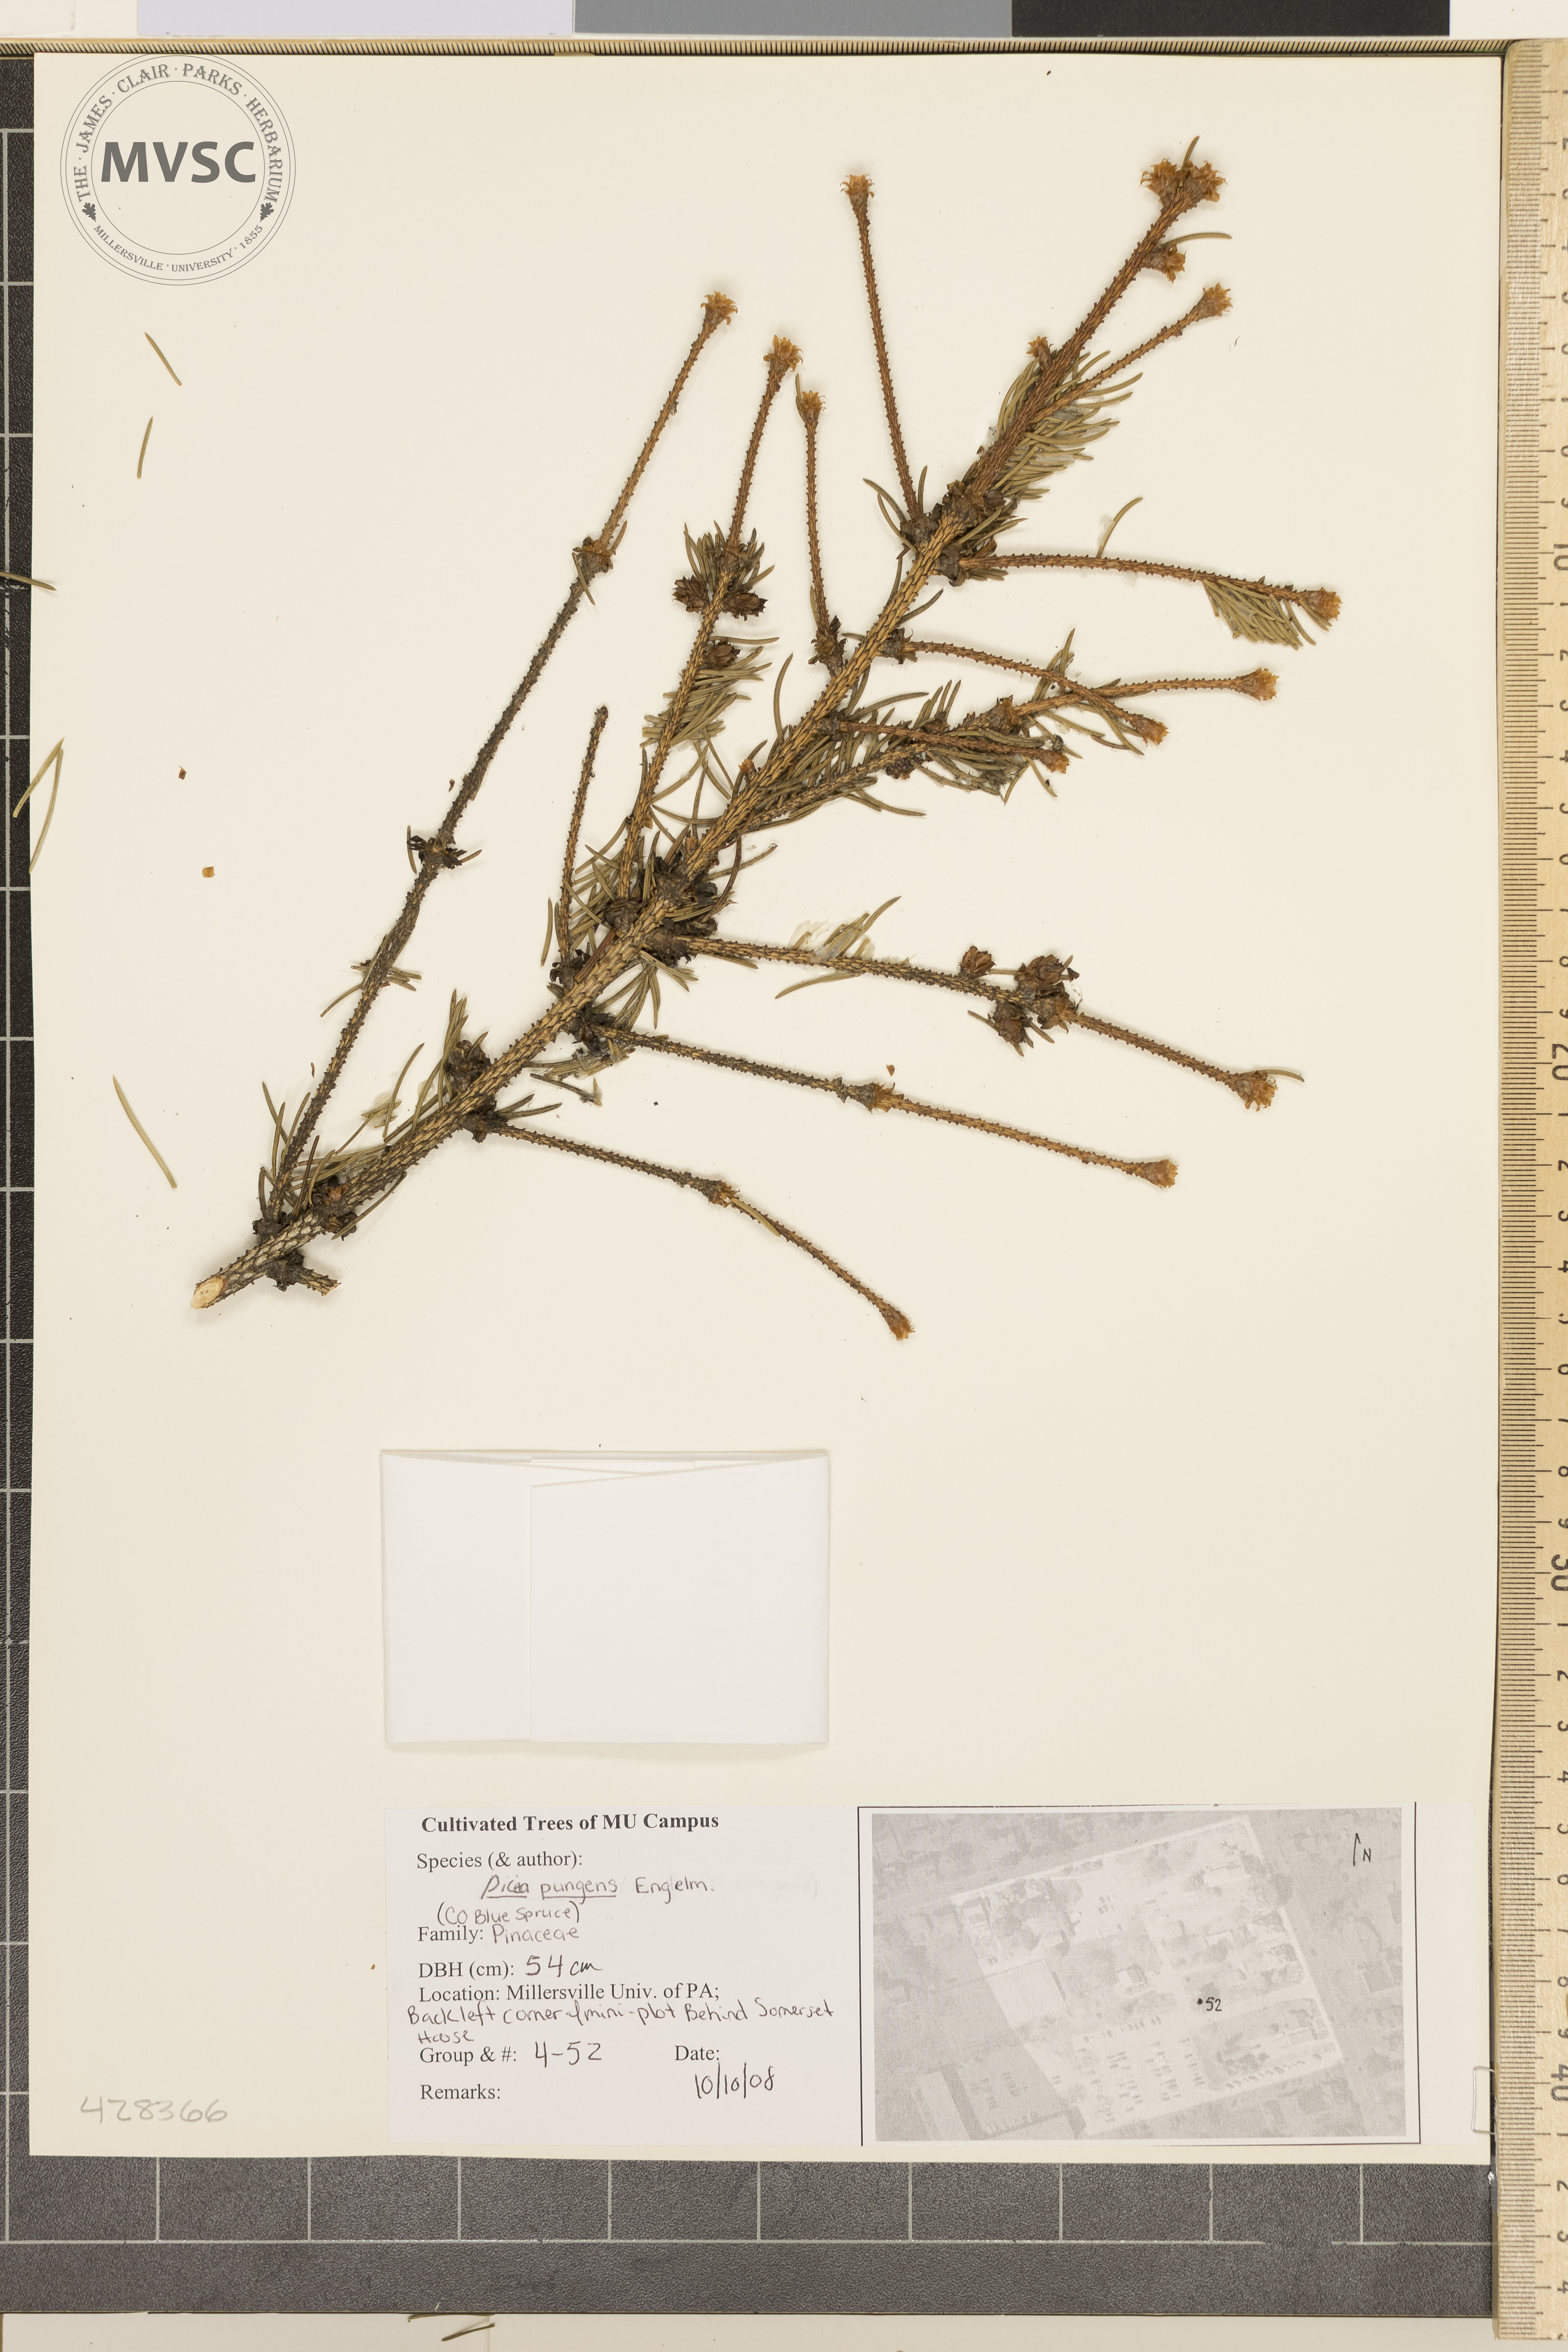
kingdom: Plantae
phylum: Tracheophyta
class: Pinopsida
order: Pinales
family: Pinaceae
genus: Picea
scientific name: Picea pungens
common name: Colorado Blue Spruce
